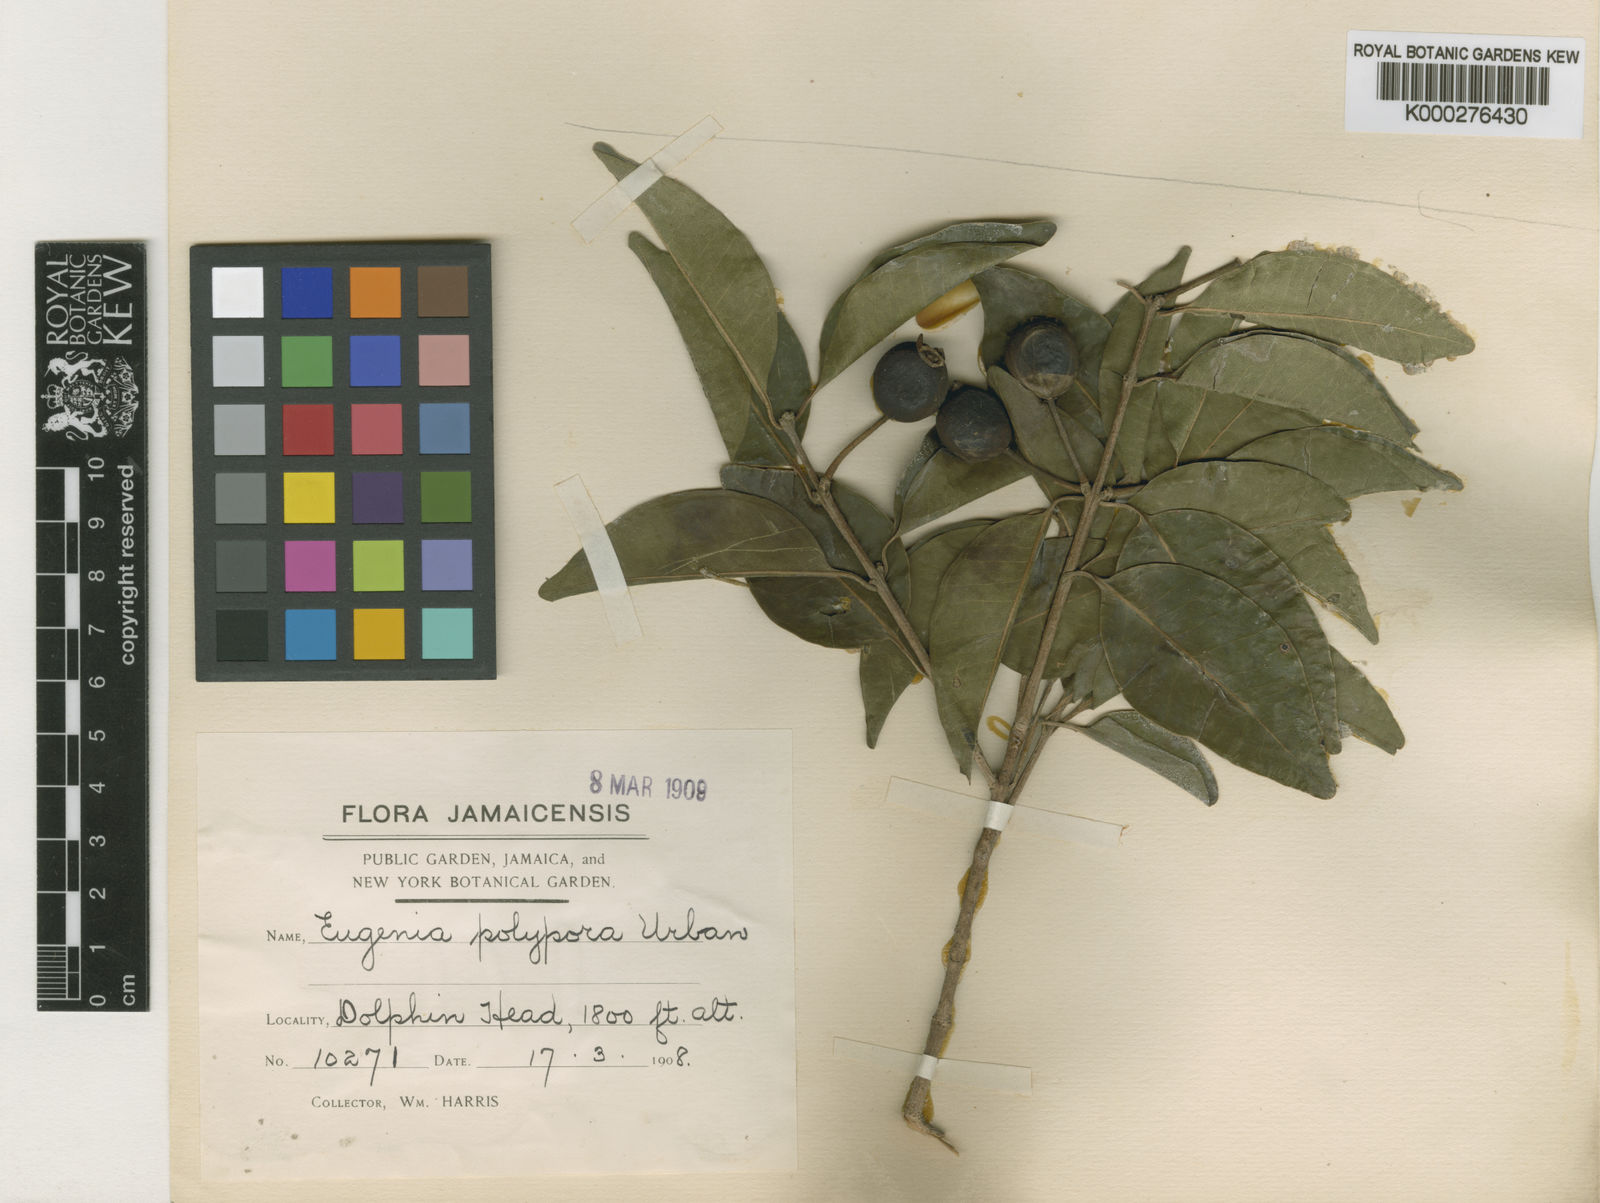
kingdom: Plantae
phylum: Tracheophyta
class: Magnoliopsida
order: Myrtales
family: Myrtaceae
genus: Eugenia
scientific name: Eugenia polypora
